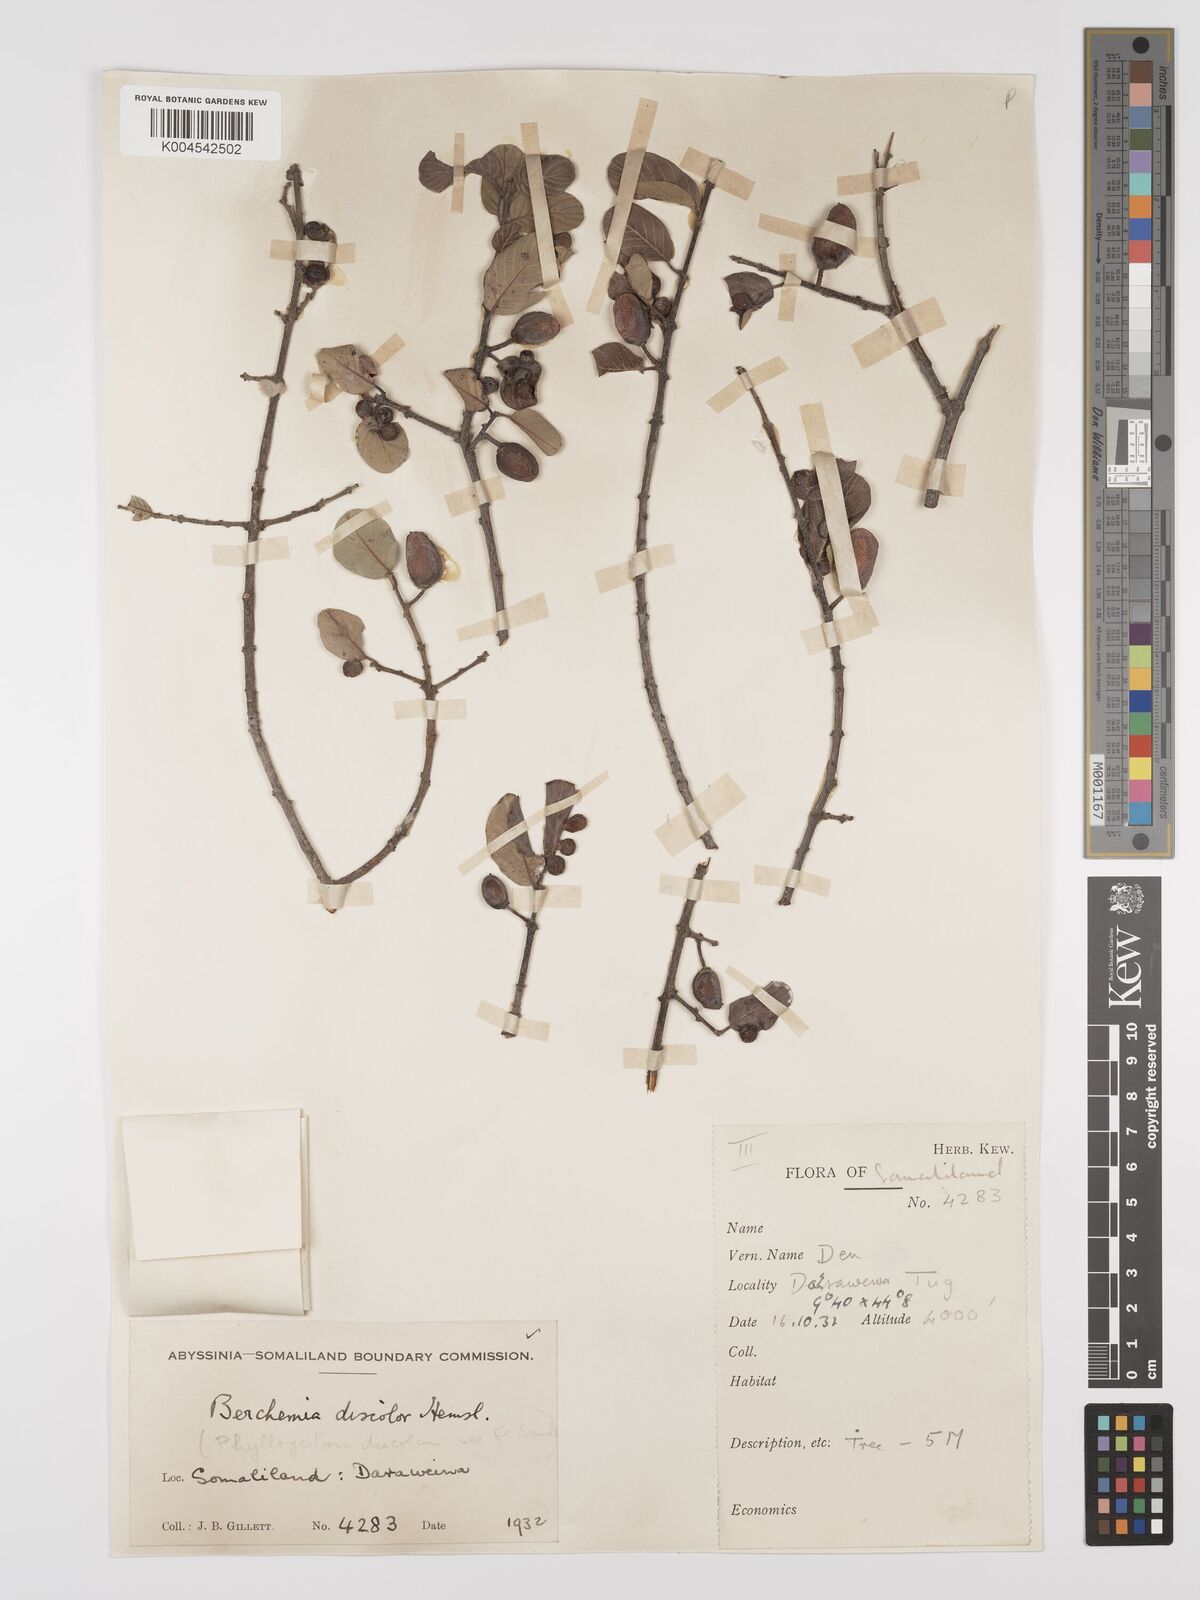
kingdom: Plantae
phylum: Tracheophyta
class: Magnoliopsida
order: Rosales
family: Rhamnaceae
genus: Phyllogeiton
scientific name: Phyllogeiton discolor
